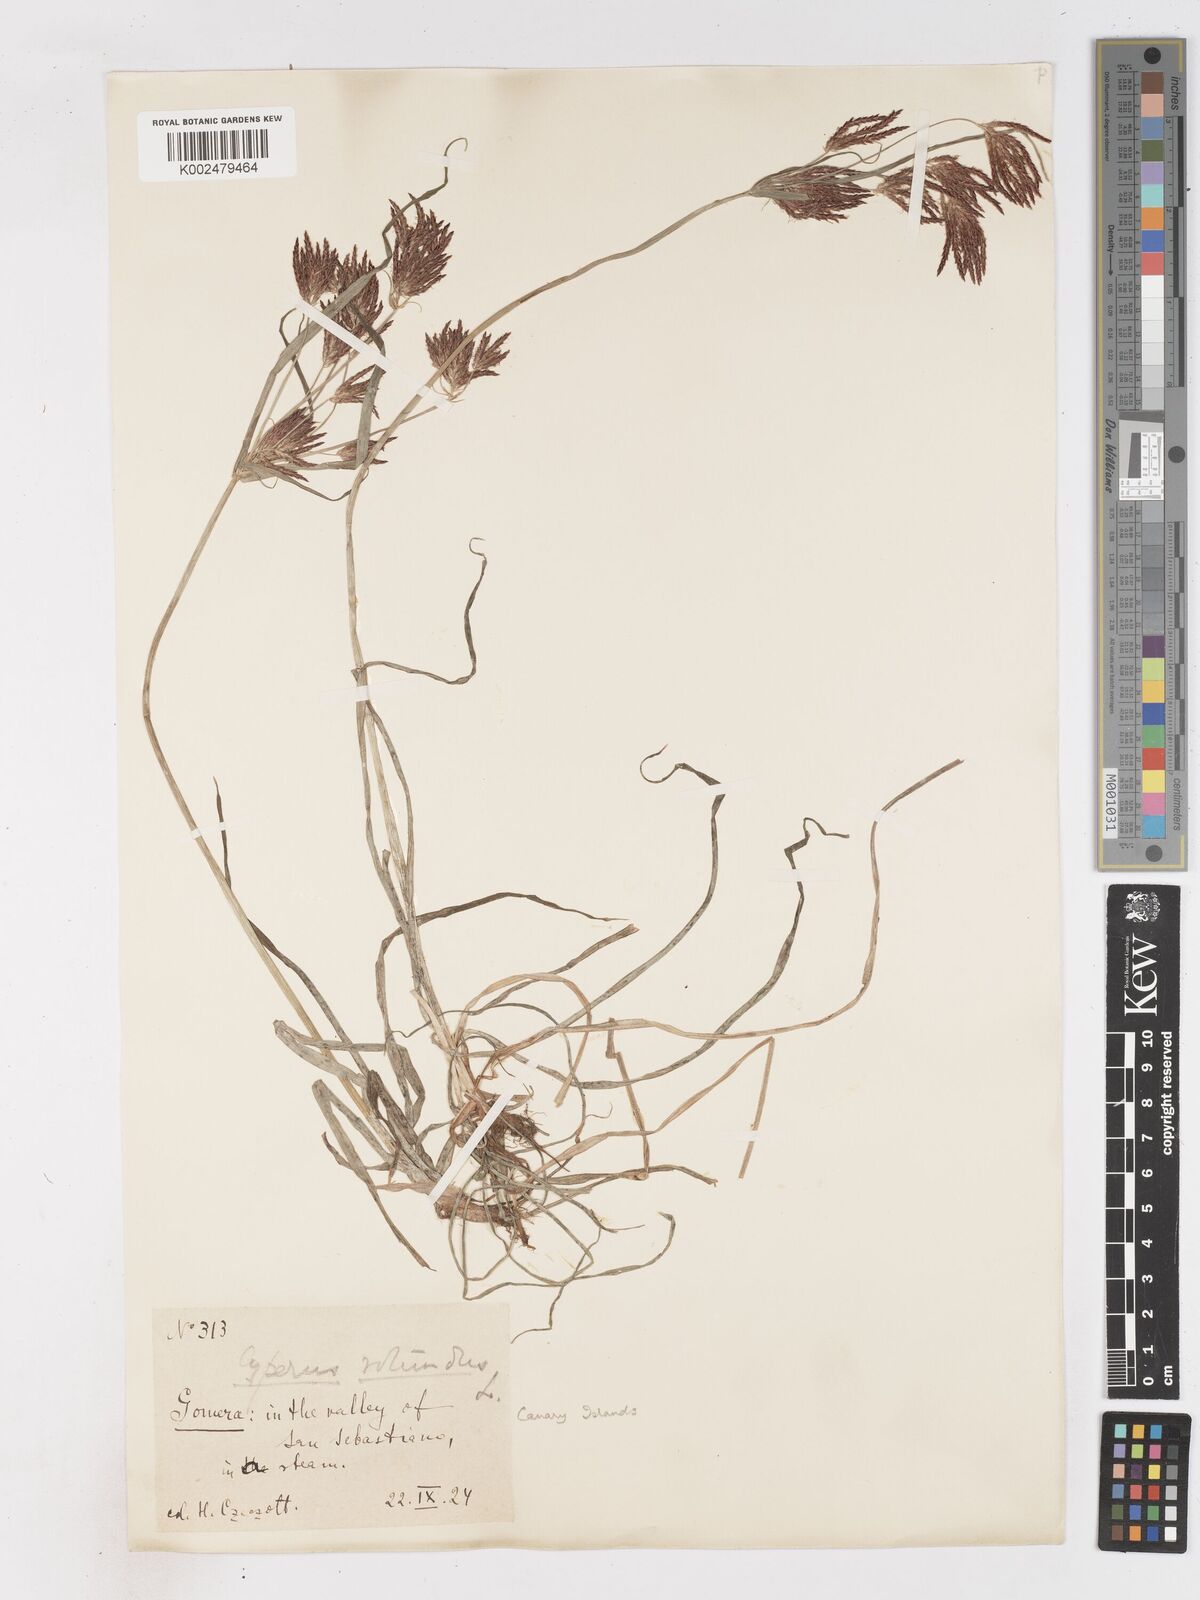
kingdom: Plantae
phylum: Tracheophyta
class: Liliopsida
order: Poales
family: Cyperaceae
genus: Cyperus
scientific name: Cyperus rotundus
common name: Nutgrass
